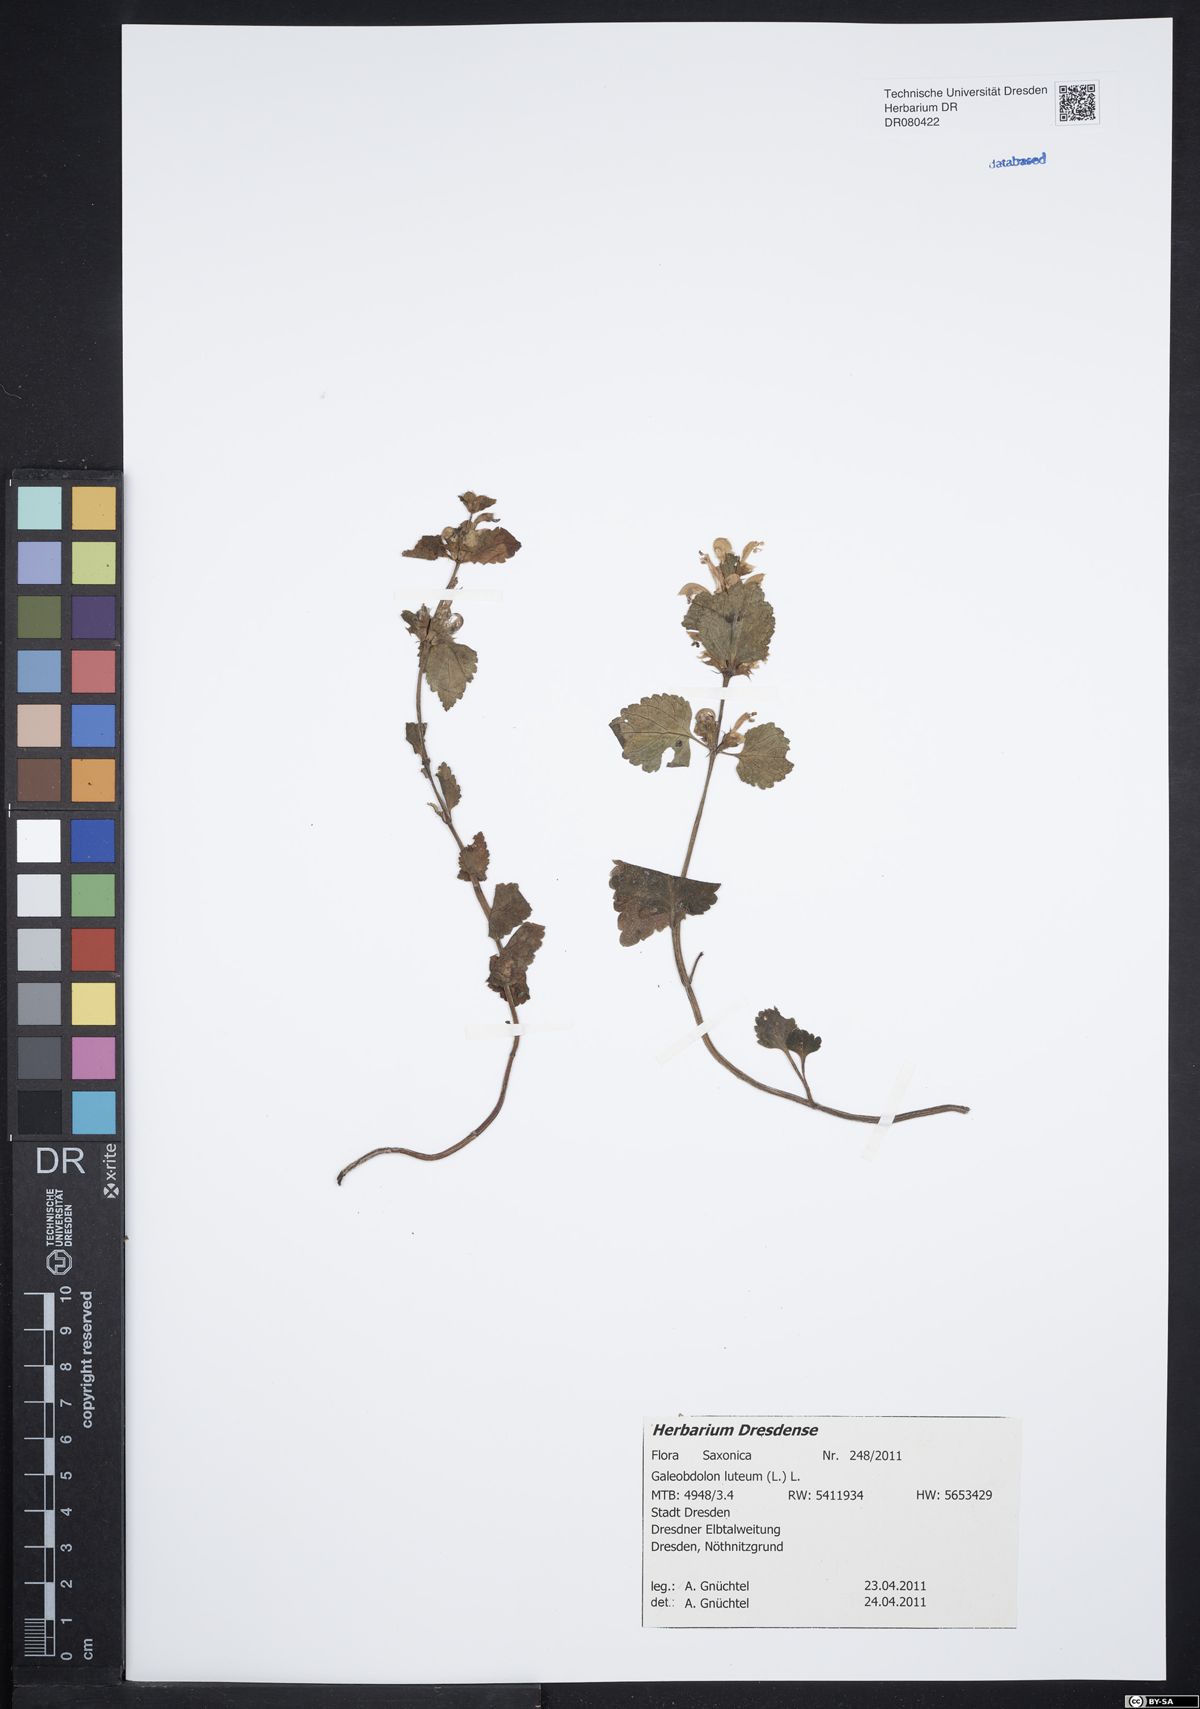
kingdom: Plantae
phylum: Tracheophyta
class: Magnoliopsida
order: Lamiales
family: Lamiaceae
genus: Lamium
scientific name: Lamium galeobdolon
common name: Yellow archangel
